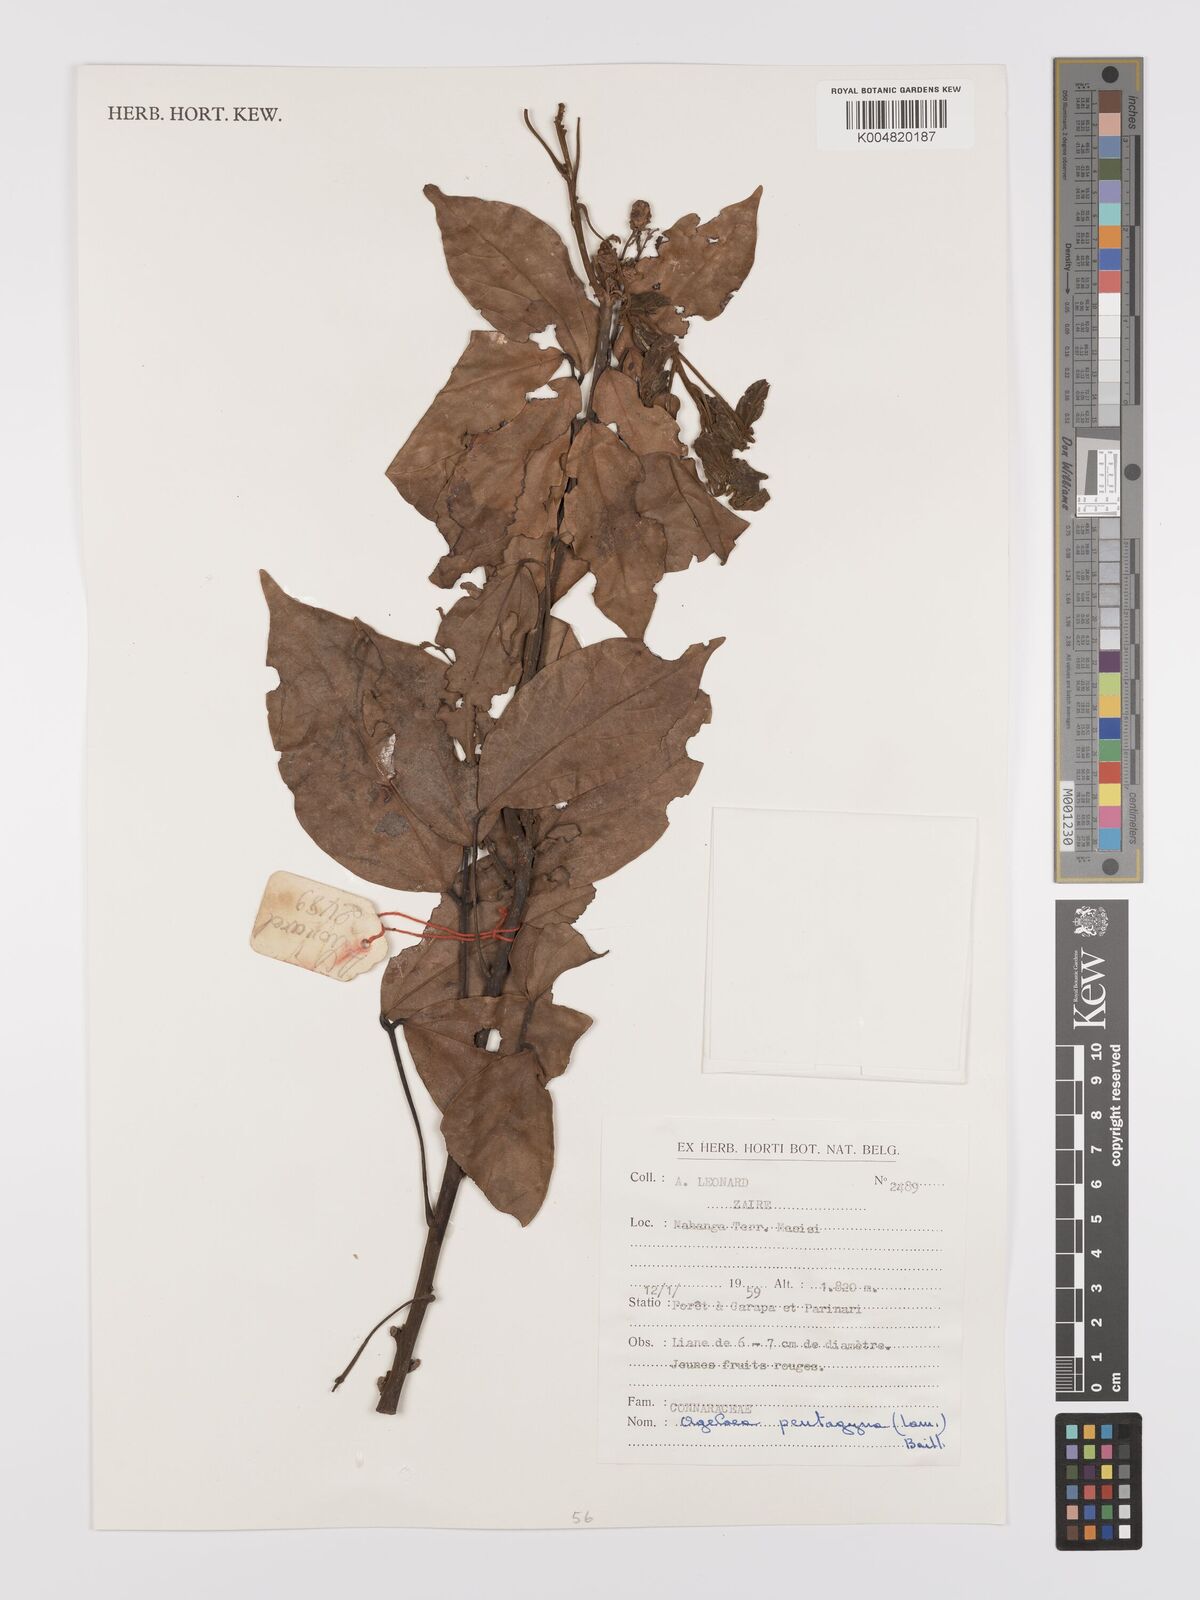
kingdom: Plantae
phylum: Tracheophyta
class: Magnoliopsida
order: Oxalidales
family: Connaraceae
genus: Agelaea
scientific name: Agelaea pentagyna
